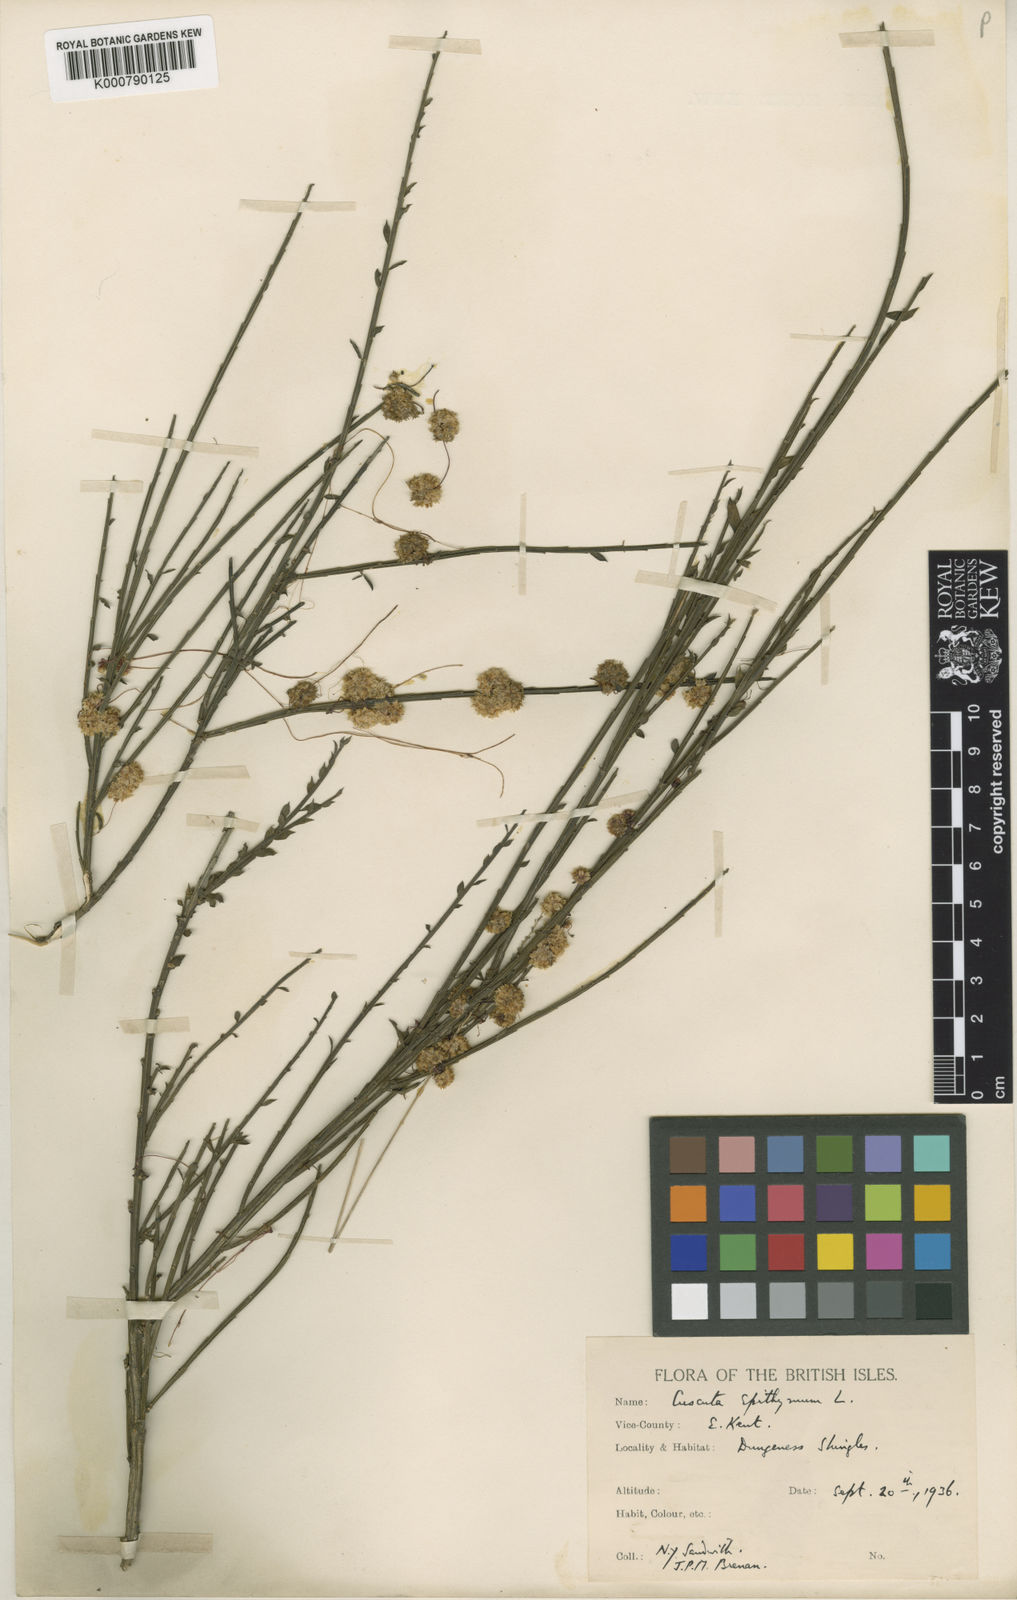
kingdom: Plantae
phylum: Tracheophyta
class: Magnoliopsida
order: Solanales
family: Convolvulaceae
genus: Cuscuta
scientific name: Cuscuta epithymum
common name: Clover dodder
